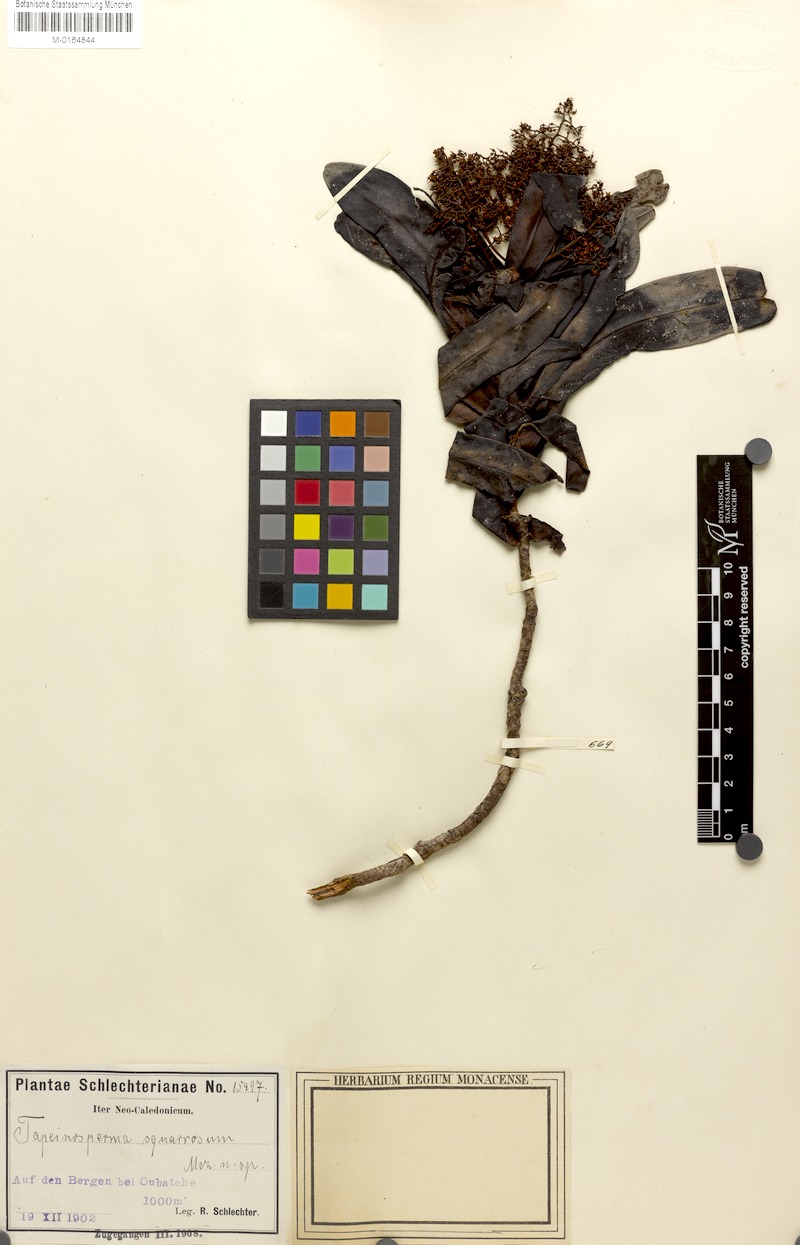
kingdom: Plantae
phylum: Tracheophyta
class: Magnoliopsida
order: Ericales
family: Primulaceae
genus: Tapeinosperma
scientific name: Tapeinosperma squarrosum
